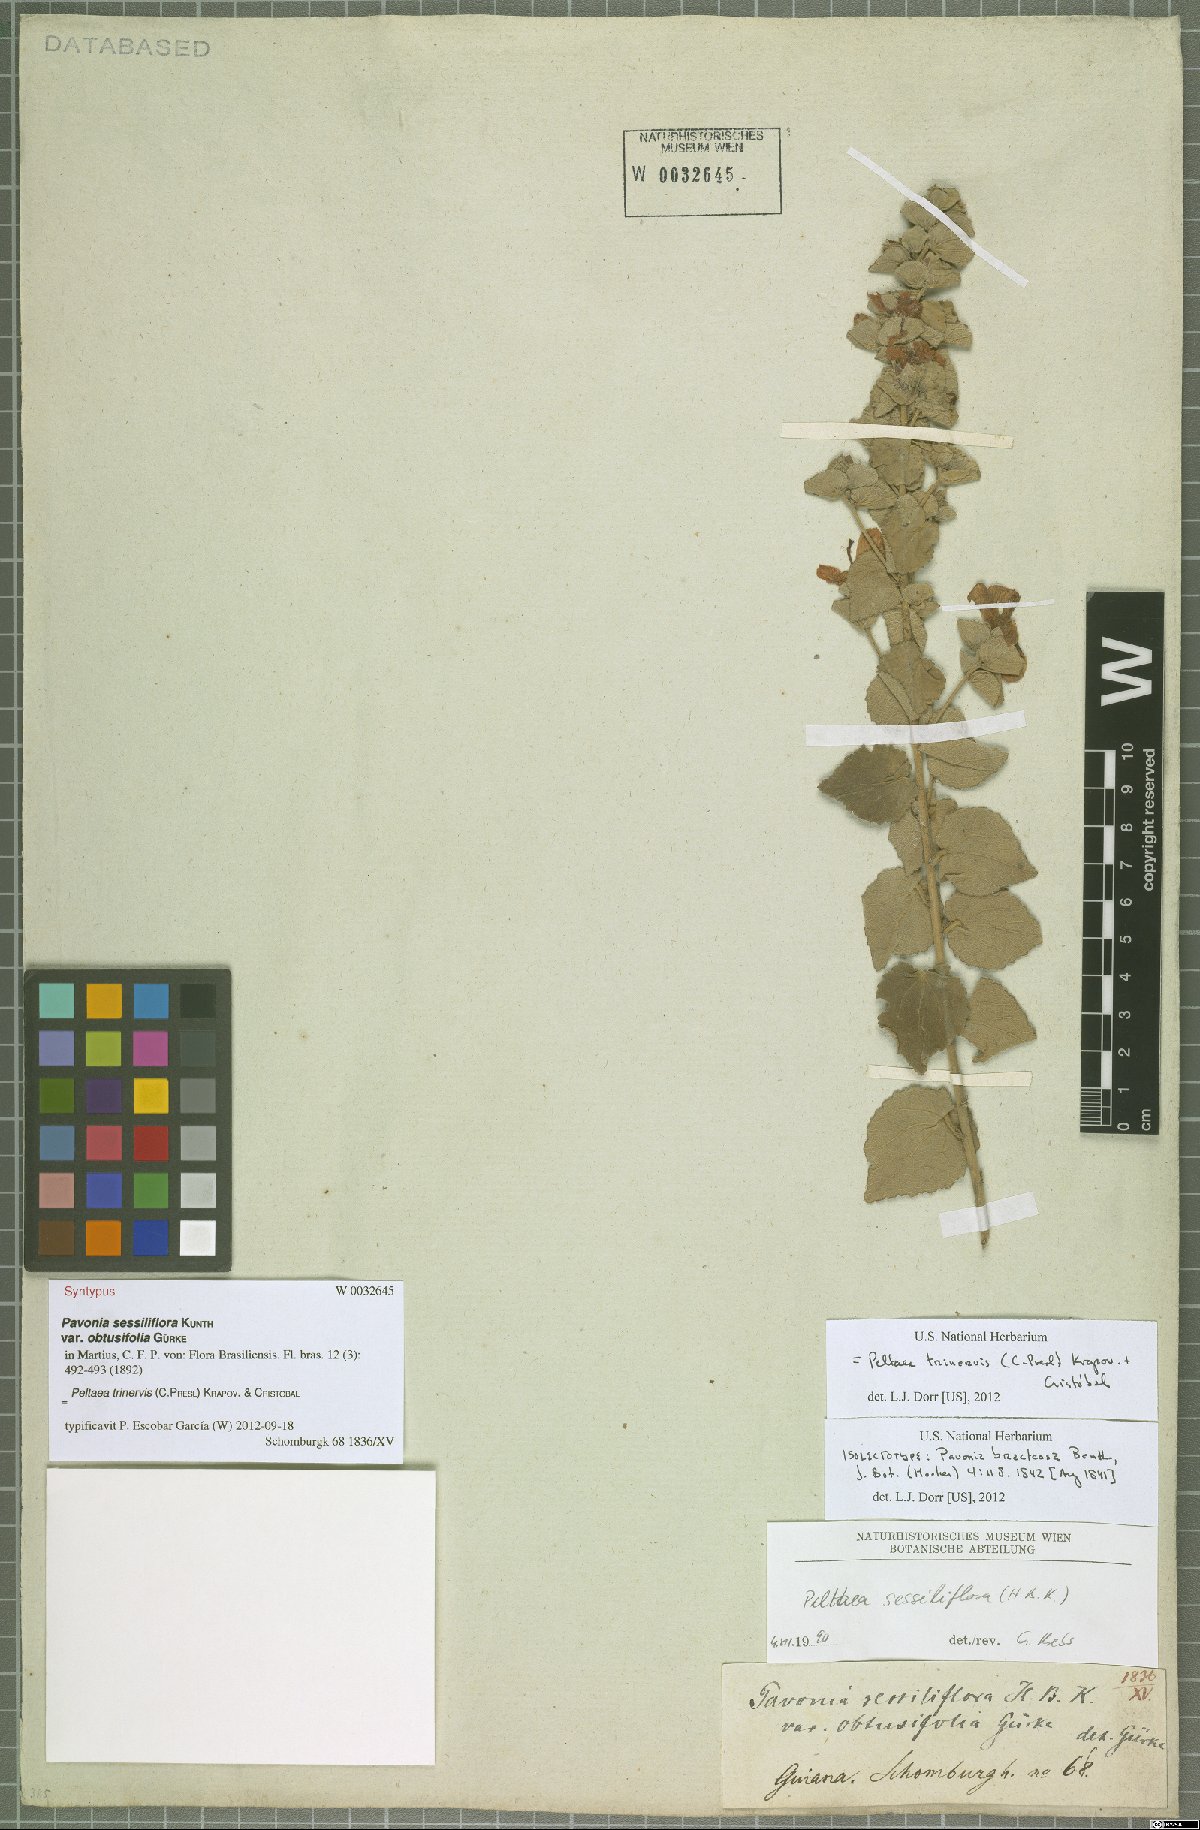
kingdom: Plantae
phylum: Tracheophyta
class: Magnoliopsida
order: Malvales
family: Malvaceae
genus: Peltaea
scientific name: Peltaea trinervis
